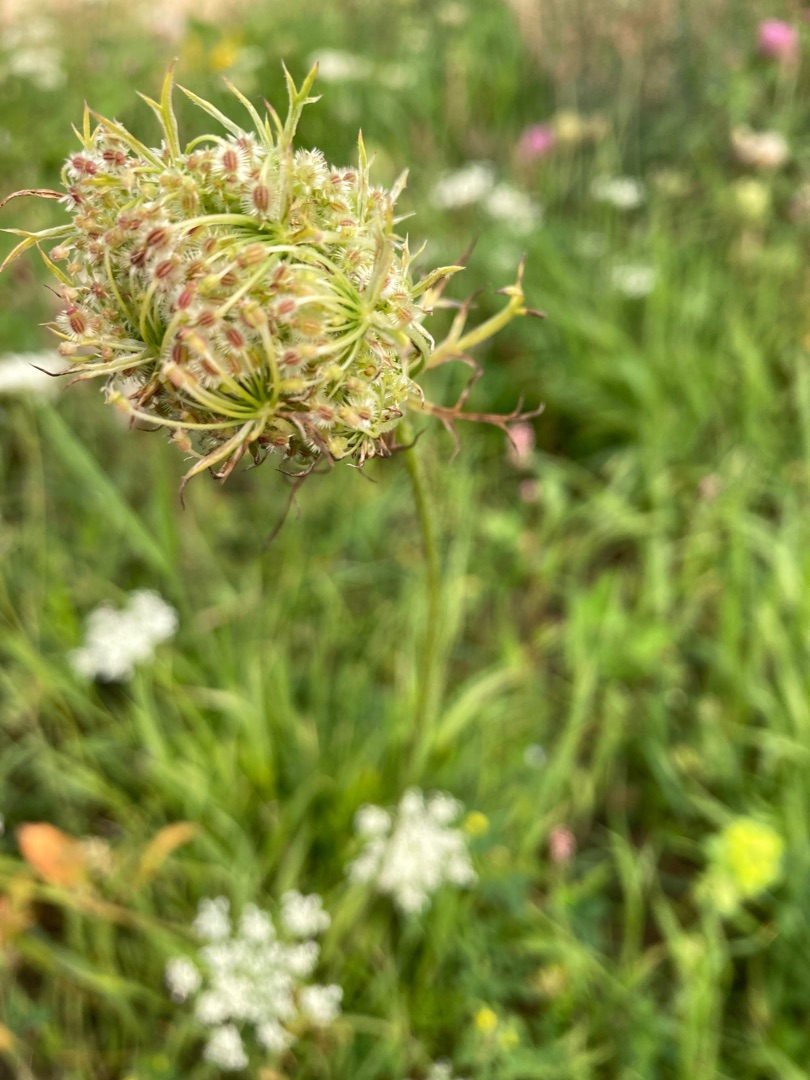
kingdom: Plantae
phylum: Tracheophyta
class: Magnoliopsida
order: Apiales
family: Apiaceae
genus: Daucus
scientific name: Daucus carota
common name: Gulerod
